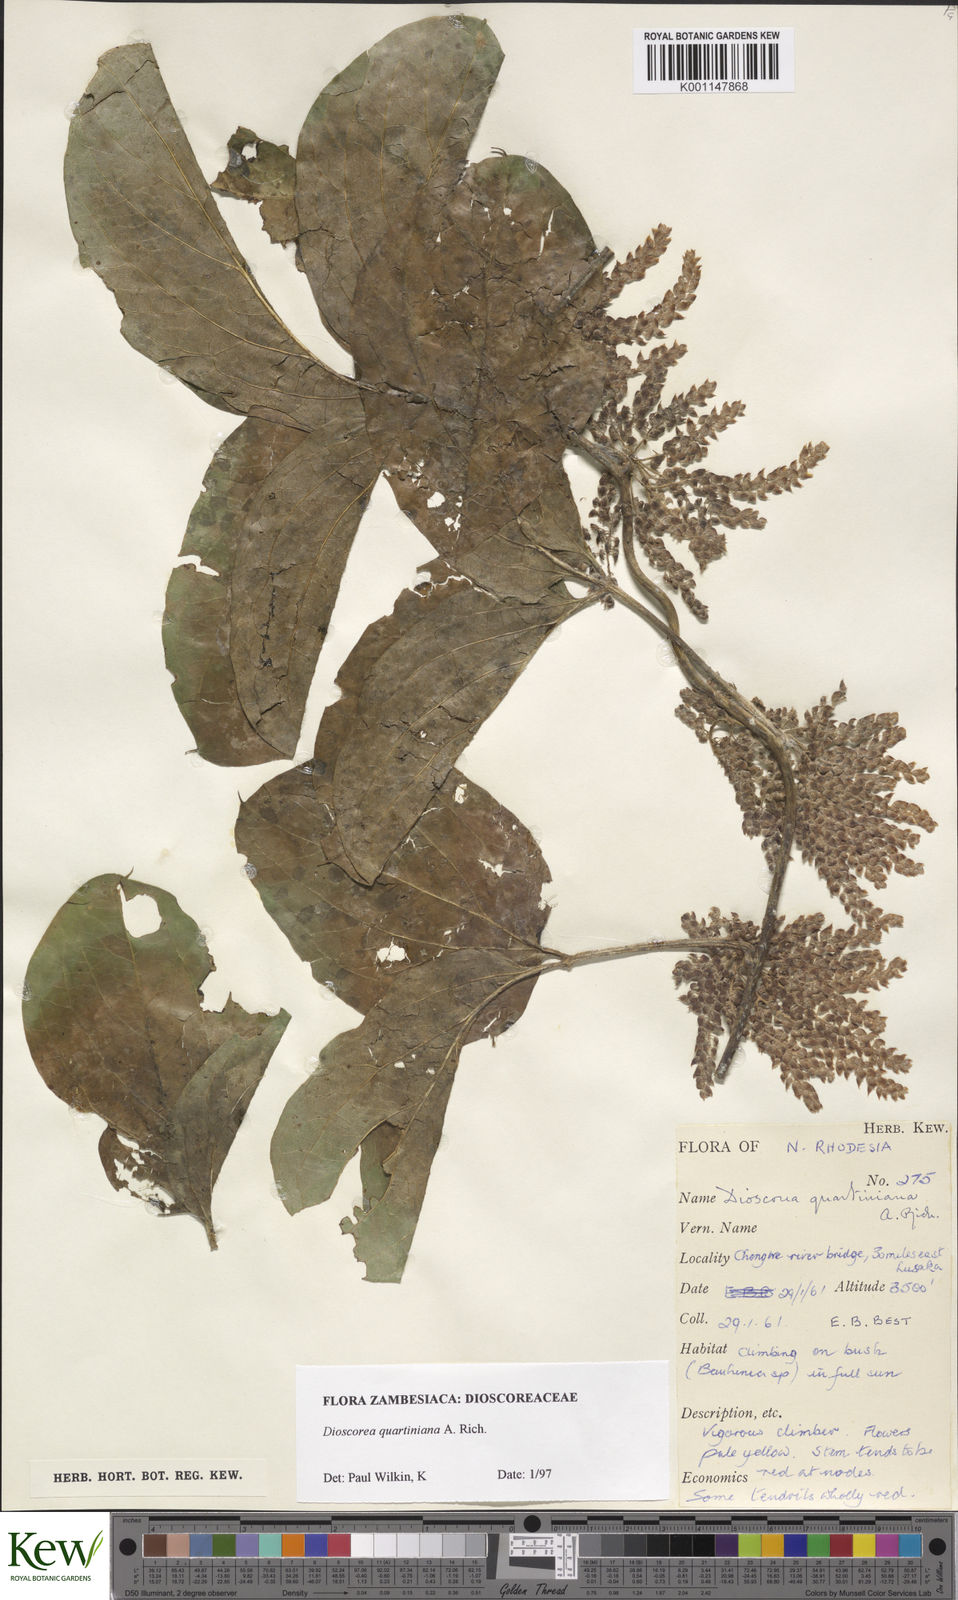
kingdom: Plantae
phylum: Tracheophyta
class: Liliopsida
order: Dioscoreales
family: Dioscoreaceae
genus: Dioscorea
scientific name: Dioscorea quartiniana
